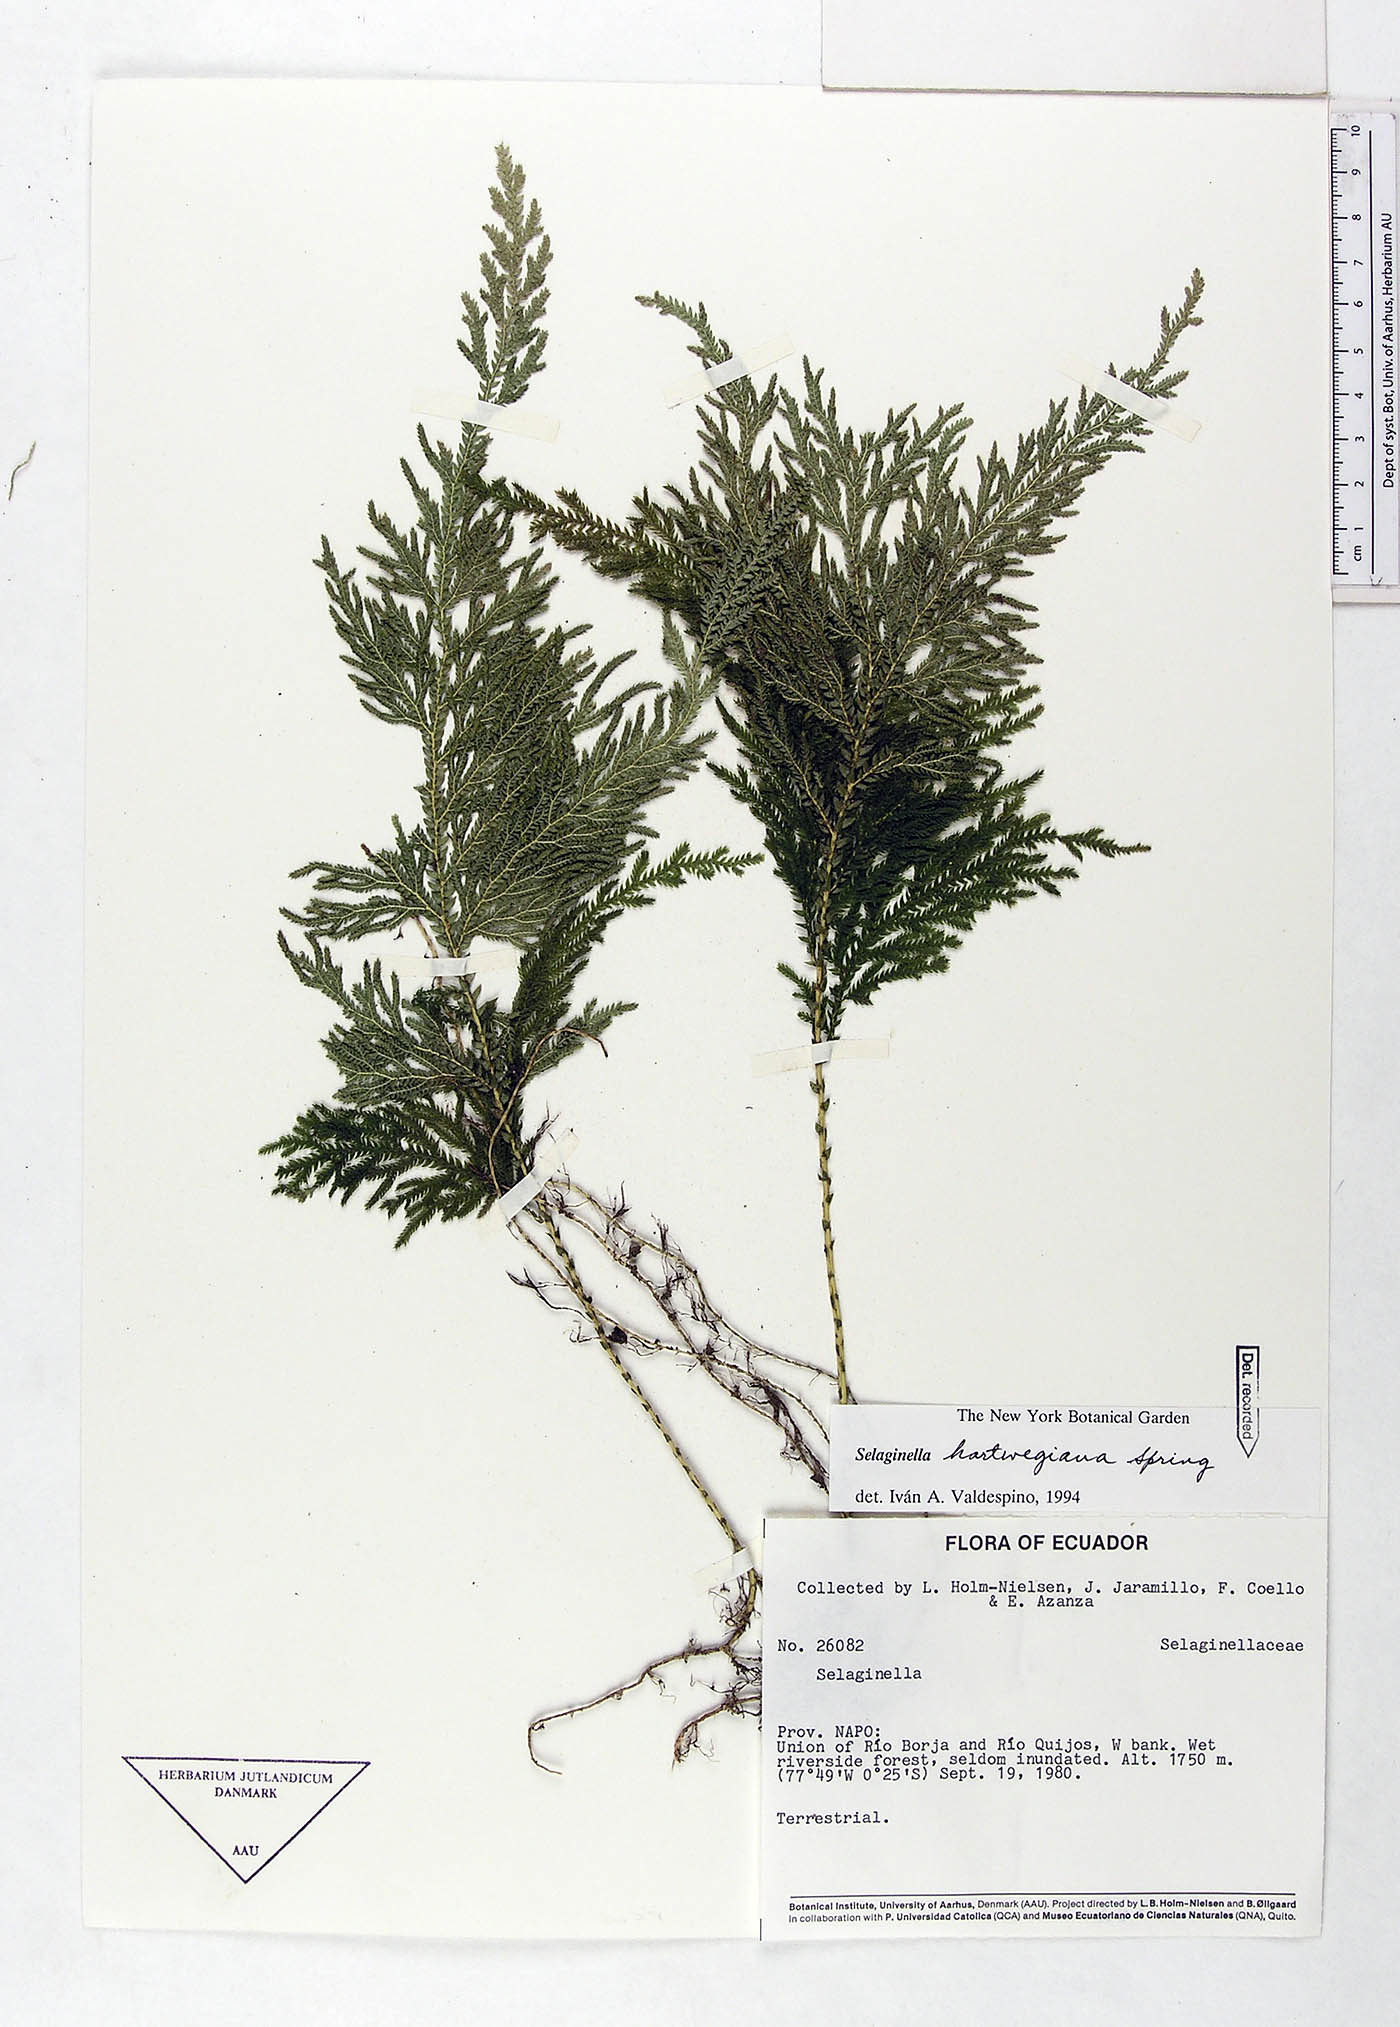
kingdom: Plantae
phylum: Tracheophyta
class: Lycopodiopsida
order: Selaginellales
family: Selaginellaceae
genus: Selaginella
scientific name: Selaginella hartwegiana
